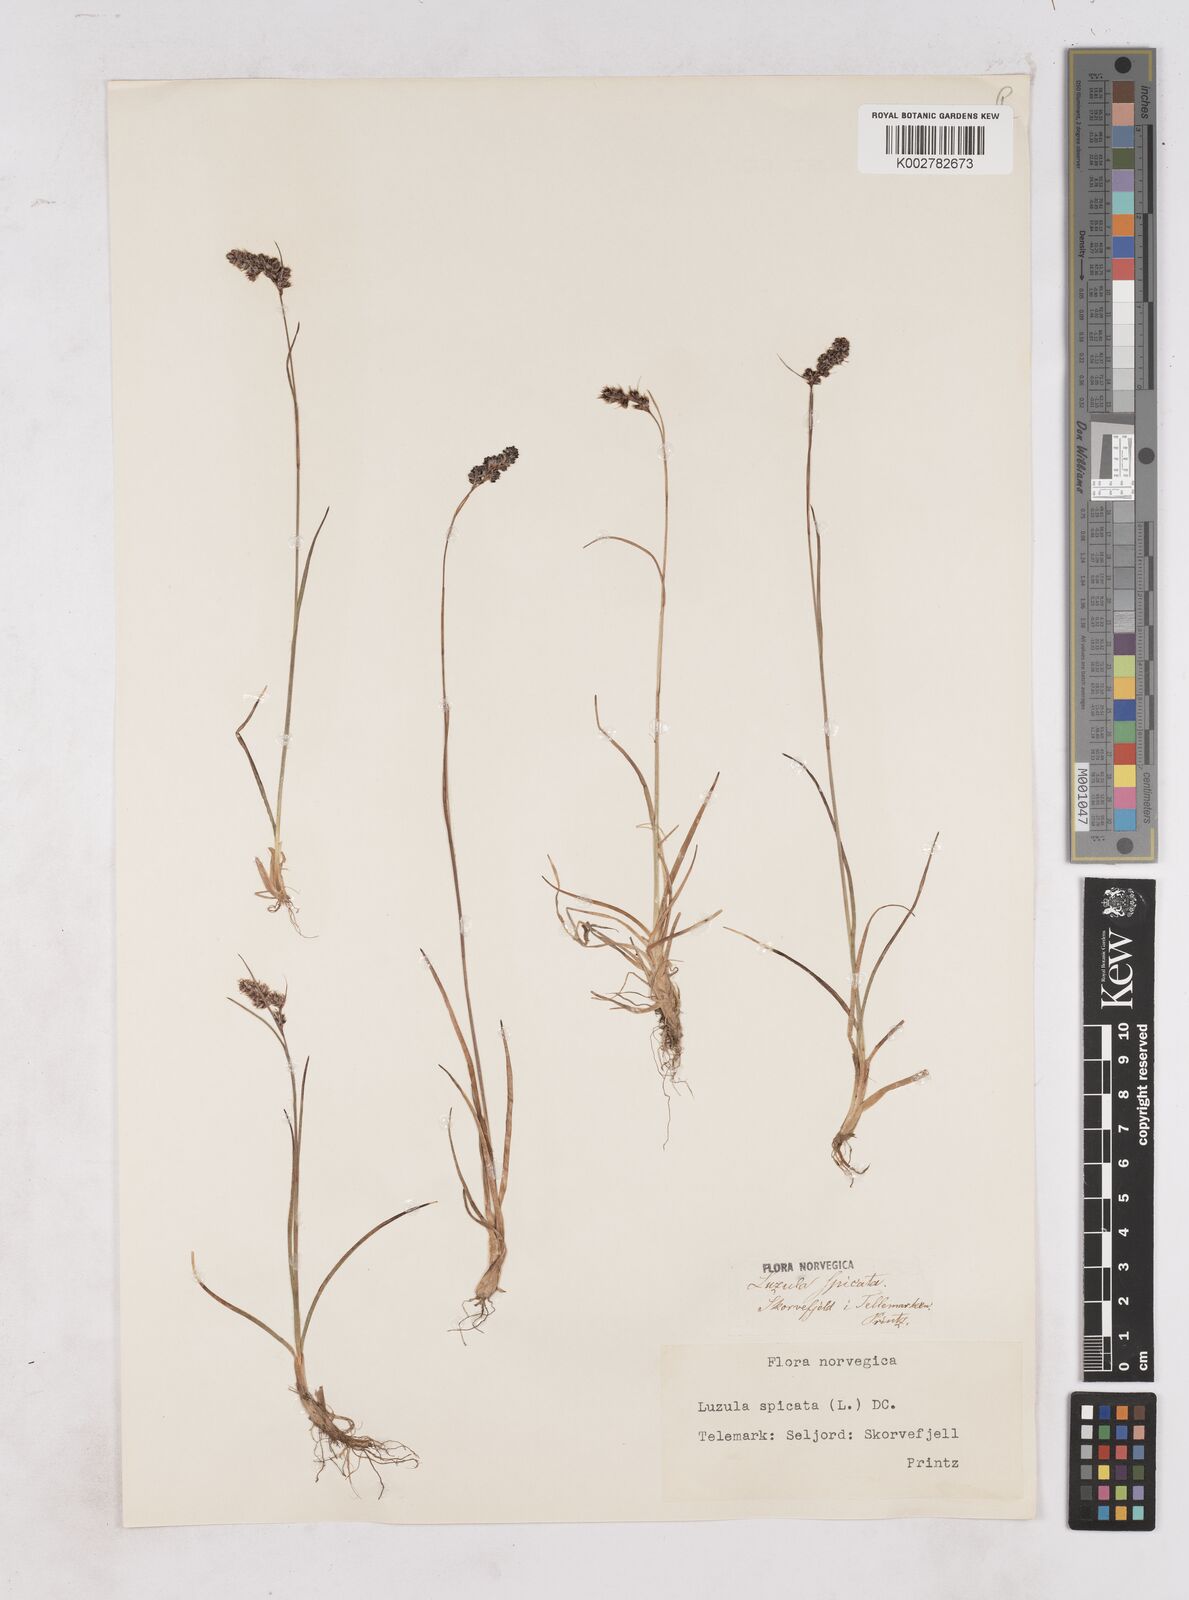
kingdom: Plantae
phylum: Tracheophyta
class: Liliopsida
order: Poales
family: Juncaceae
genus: Luzula
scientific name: Luzula spicata
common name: Spiked wood-rush
